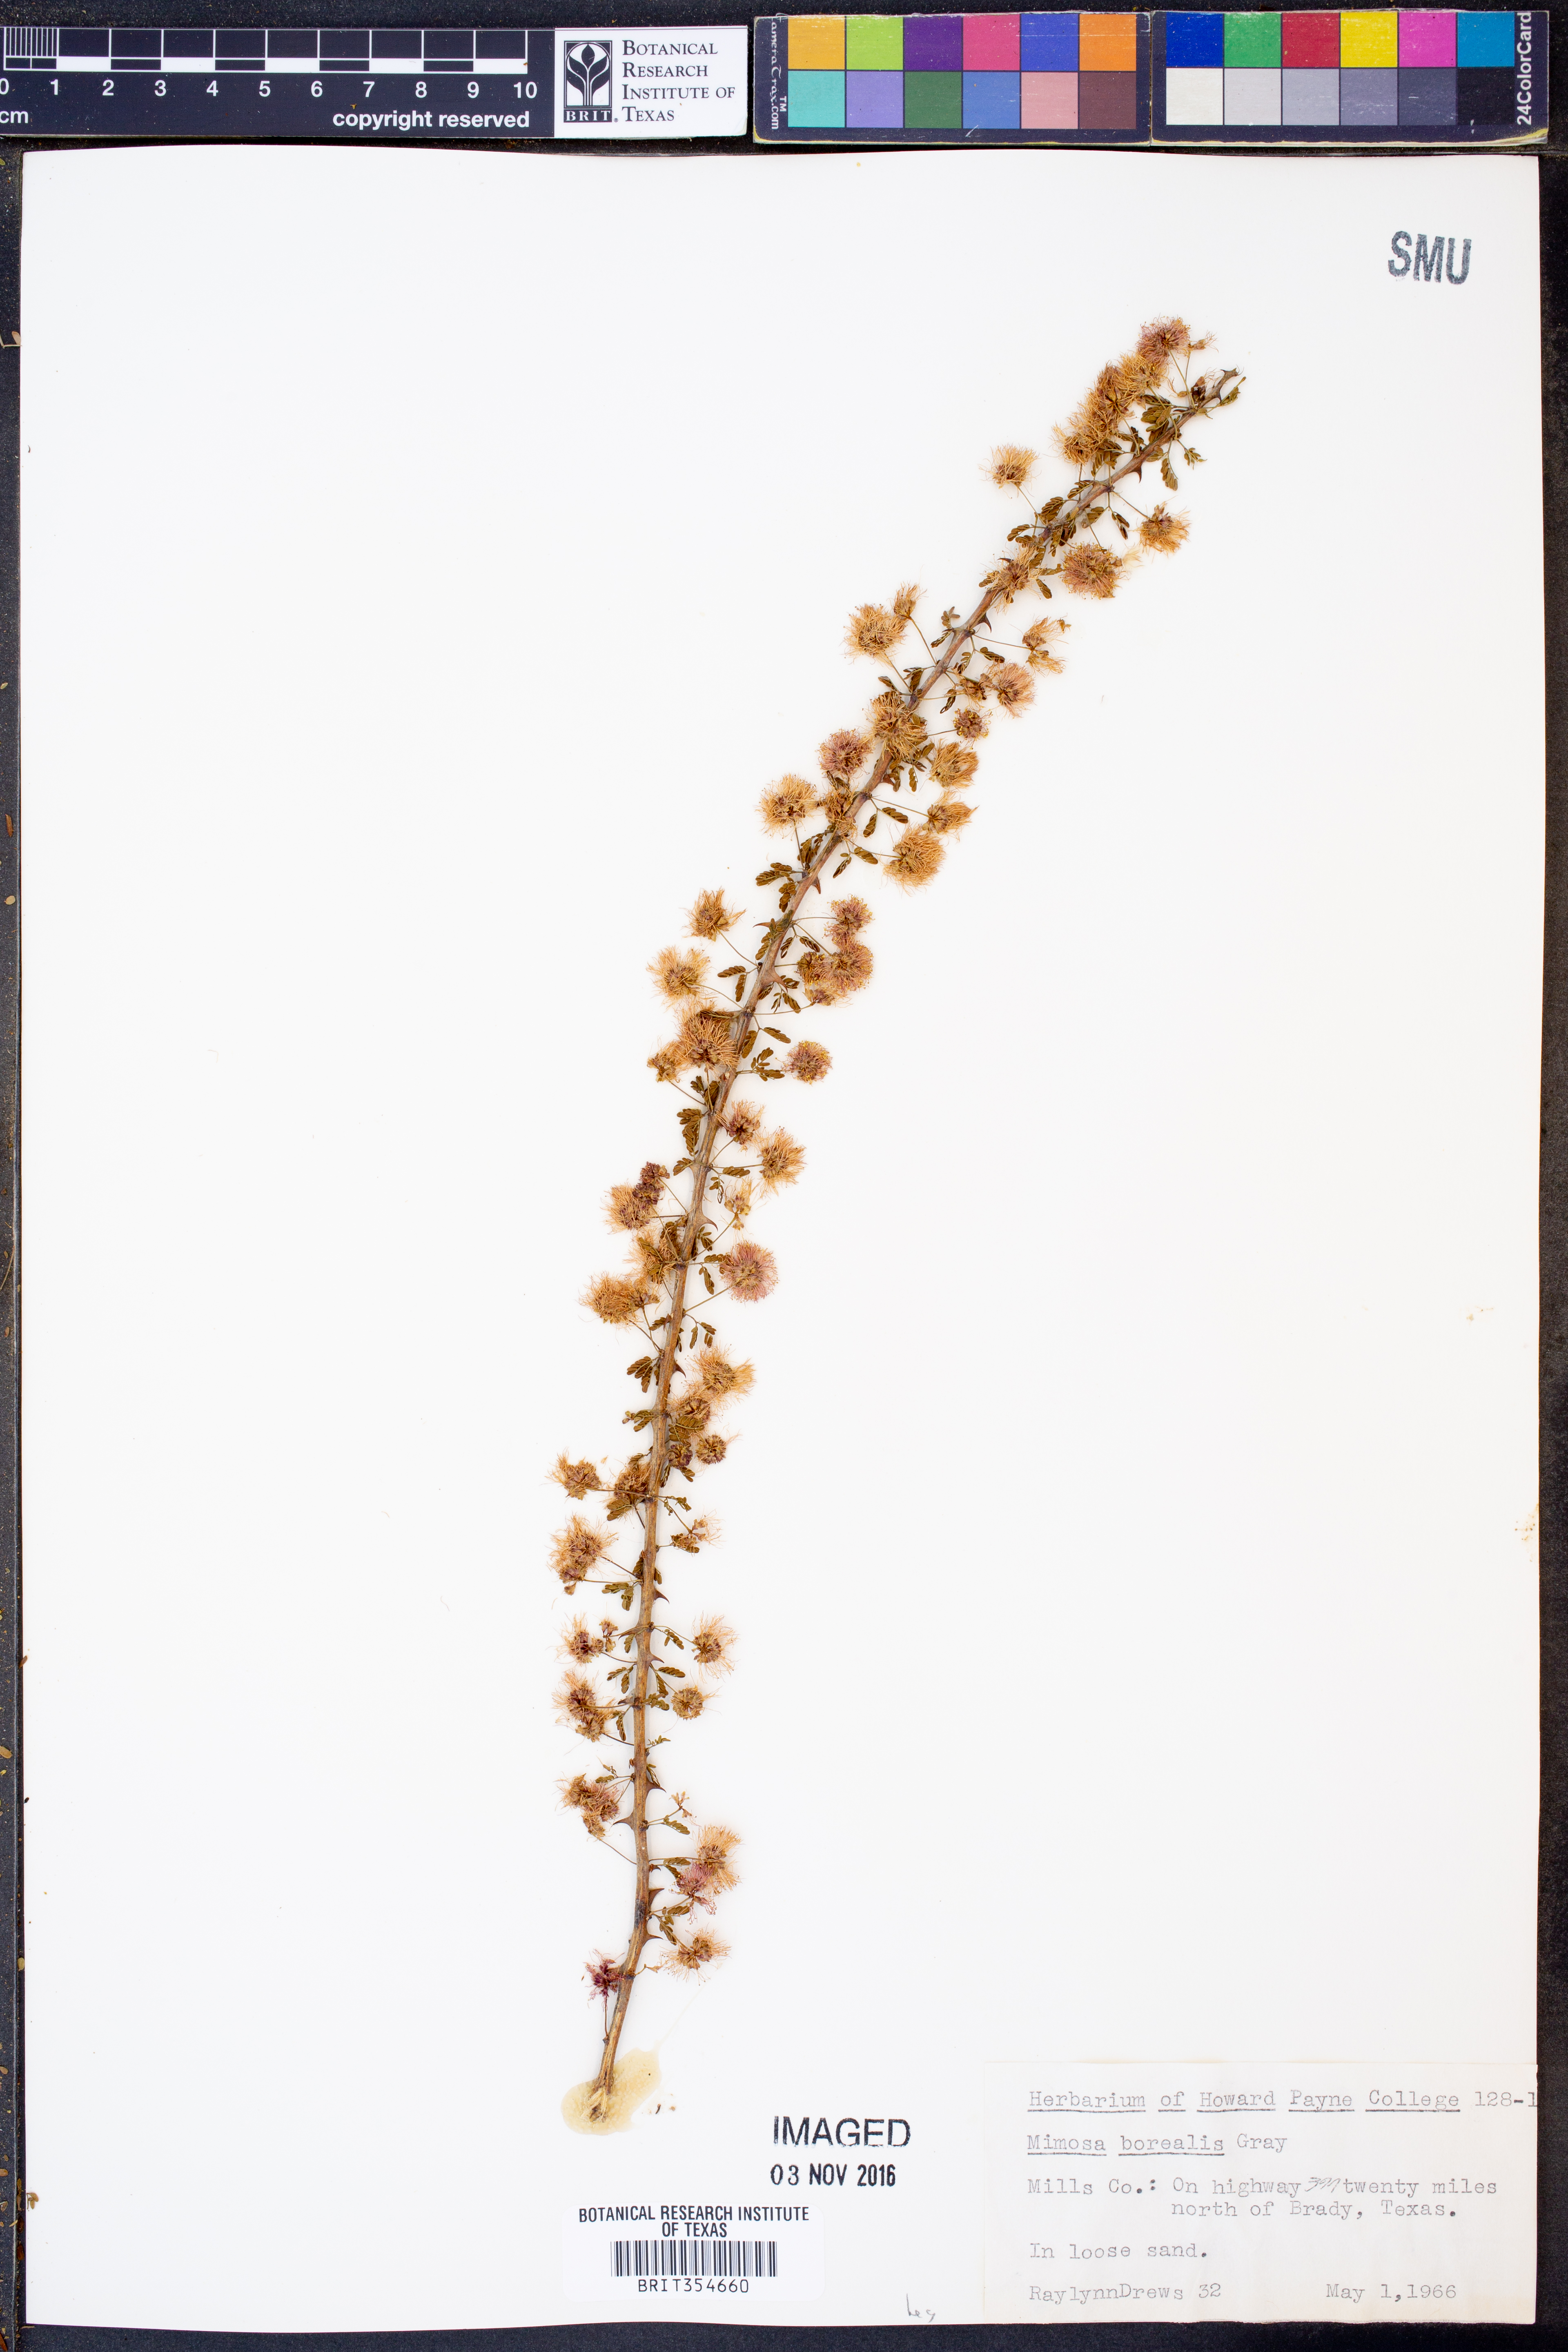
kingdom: Plantae
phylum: Tracheophyta
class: Magnoliopsida
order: Fabales
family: Fabaceae
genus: Mimosa
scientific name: Mimosa borealis
